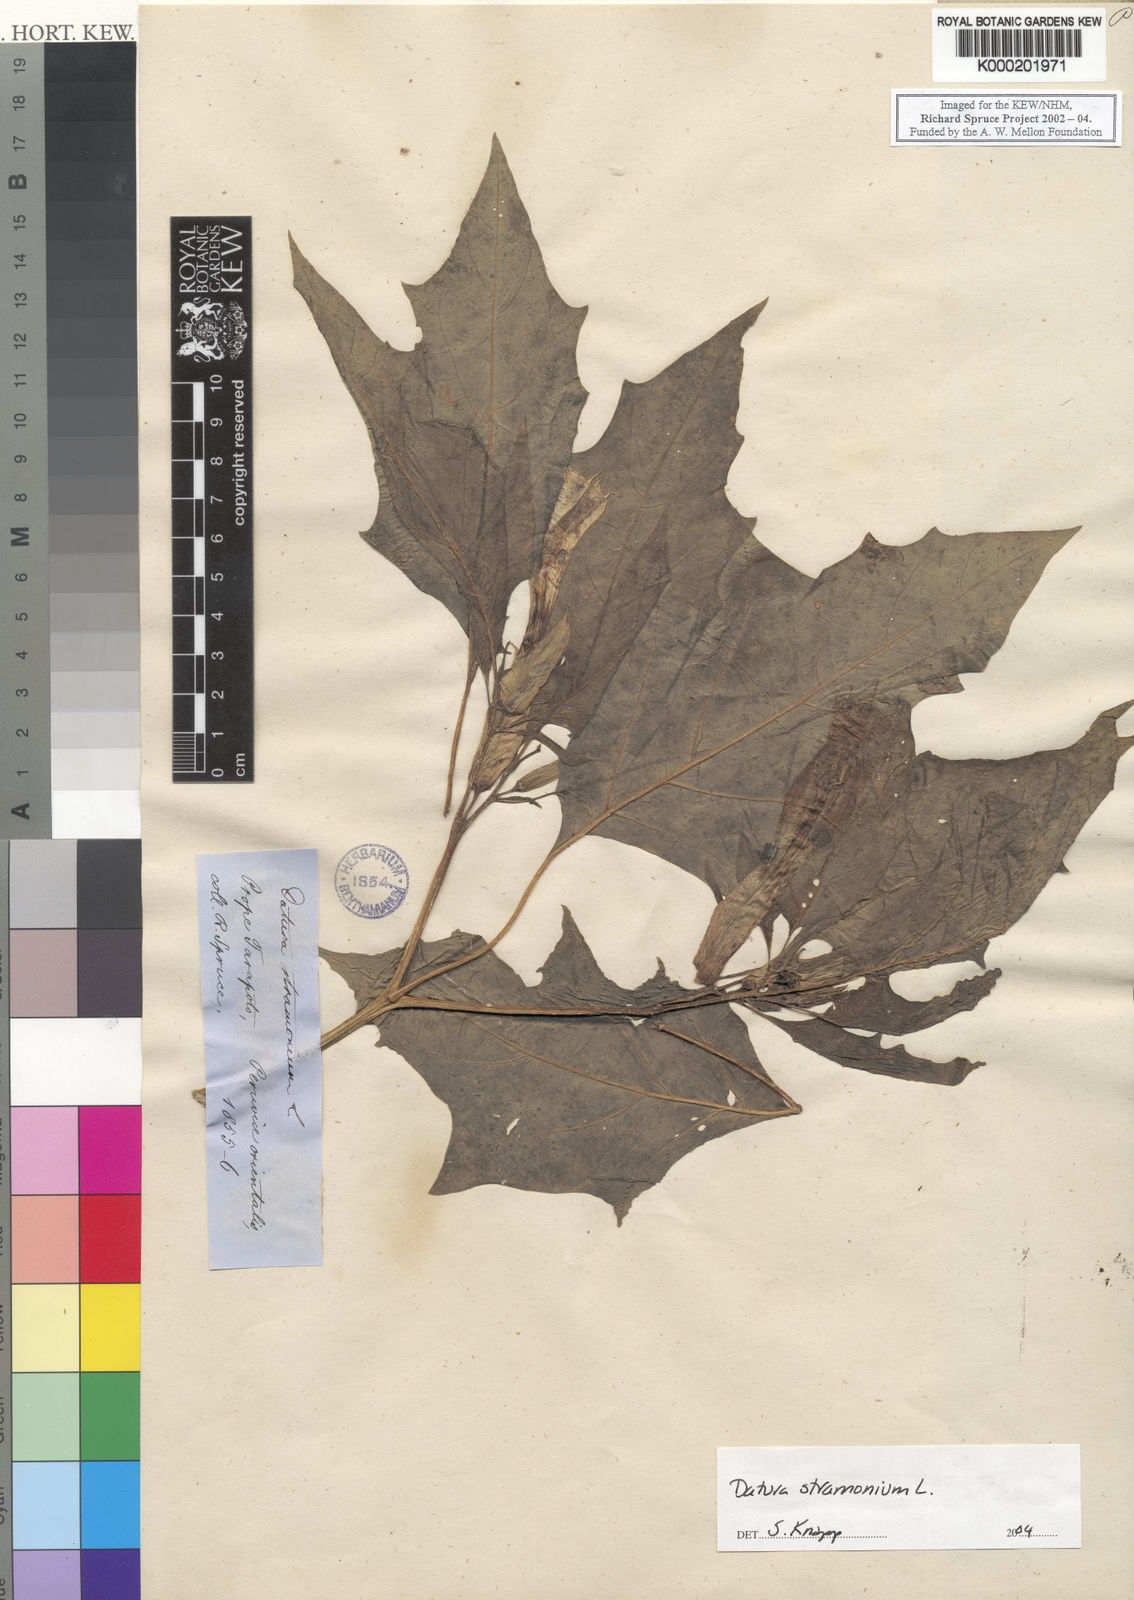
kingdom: Plantae
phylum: Tracheophyta
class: Magnoliopsida
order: Solanales
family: Solanaceae
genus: Datura
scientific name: Datura stramonium
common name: Thorn-apple
